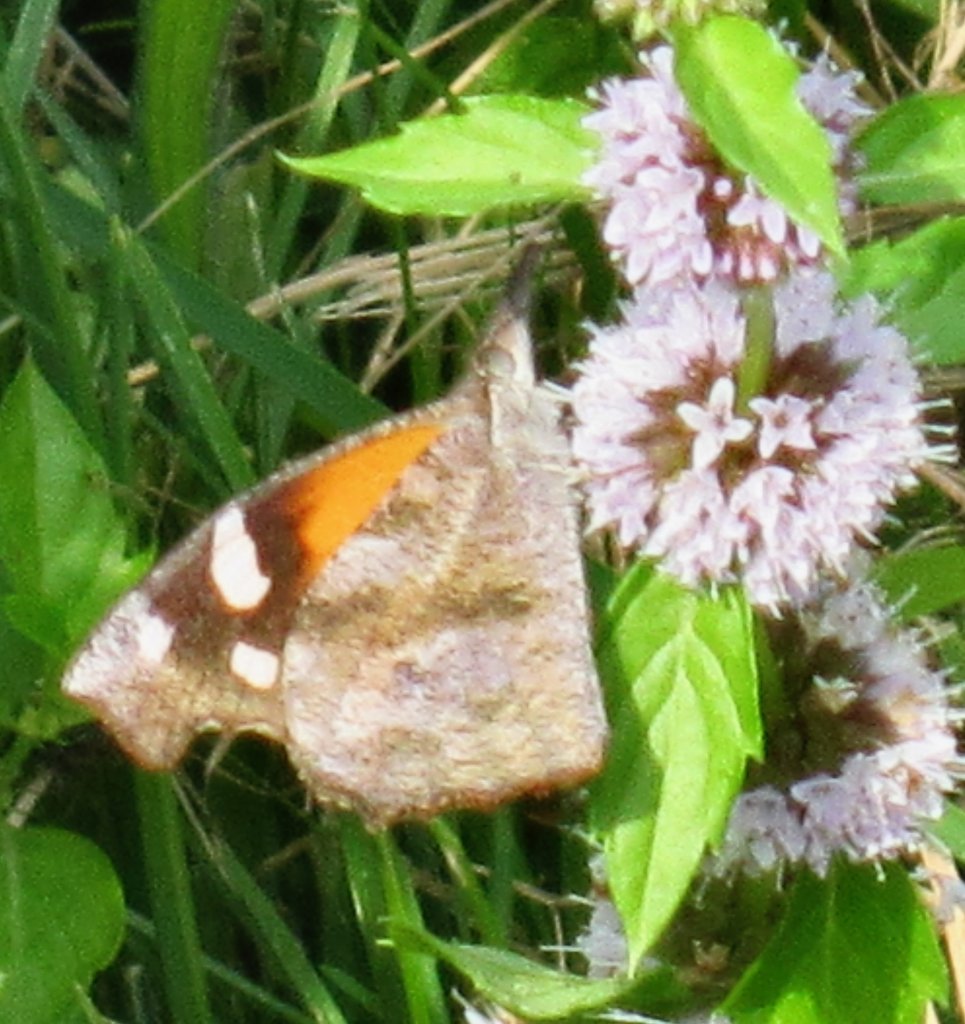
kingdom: Animalia
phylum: Arthropoda
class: Insecta
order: Lepidoptera
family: Nymphalidae
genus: Libytheana
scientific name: Libytheana carinenta
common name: American Snout
